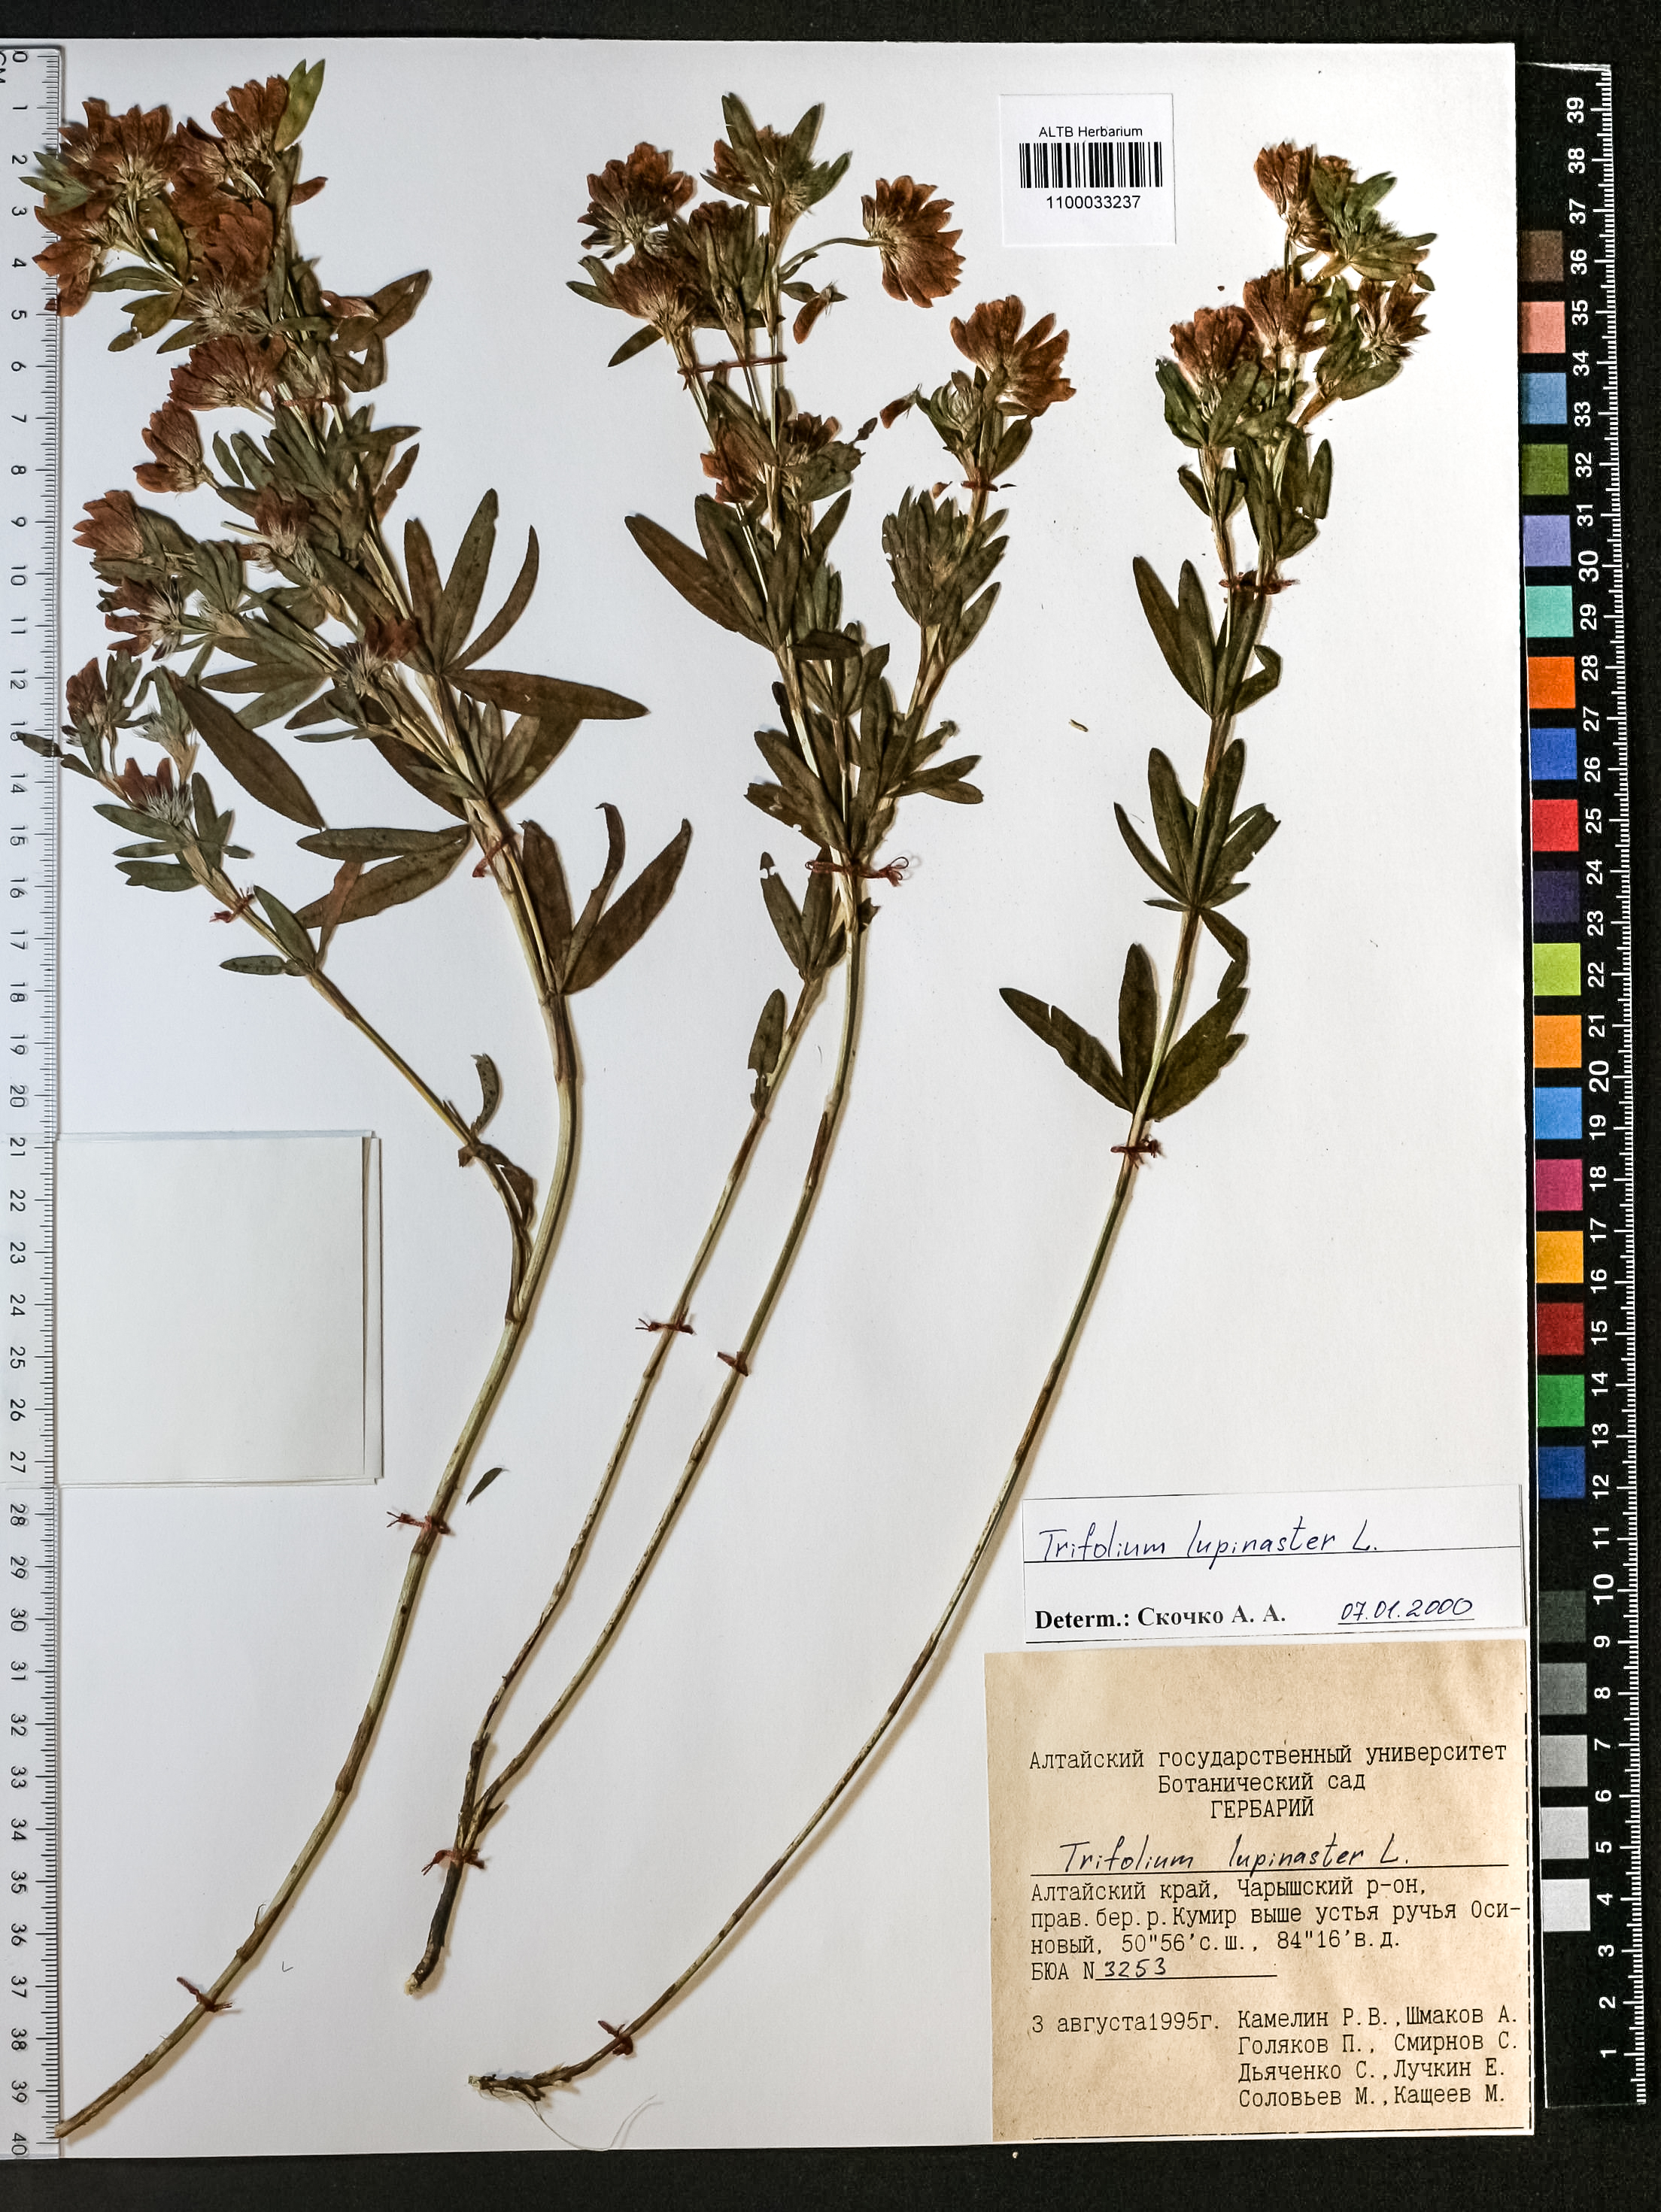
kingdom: Plantae
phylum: Tracheophyta
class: Magnoliopsida
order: Fabales
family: Fabaceae
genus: Trifolium
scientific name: Trifolium lupinaster
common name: Lupine clover
